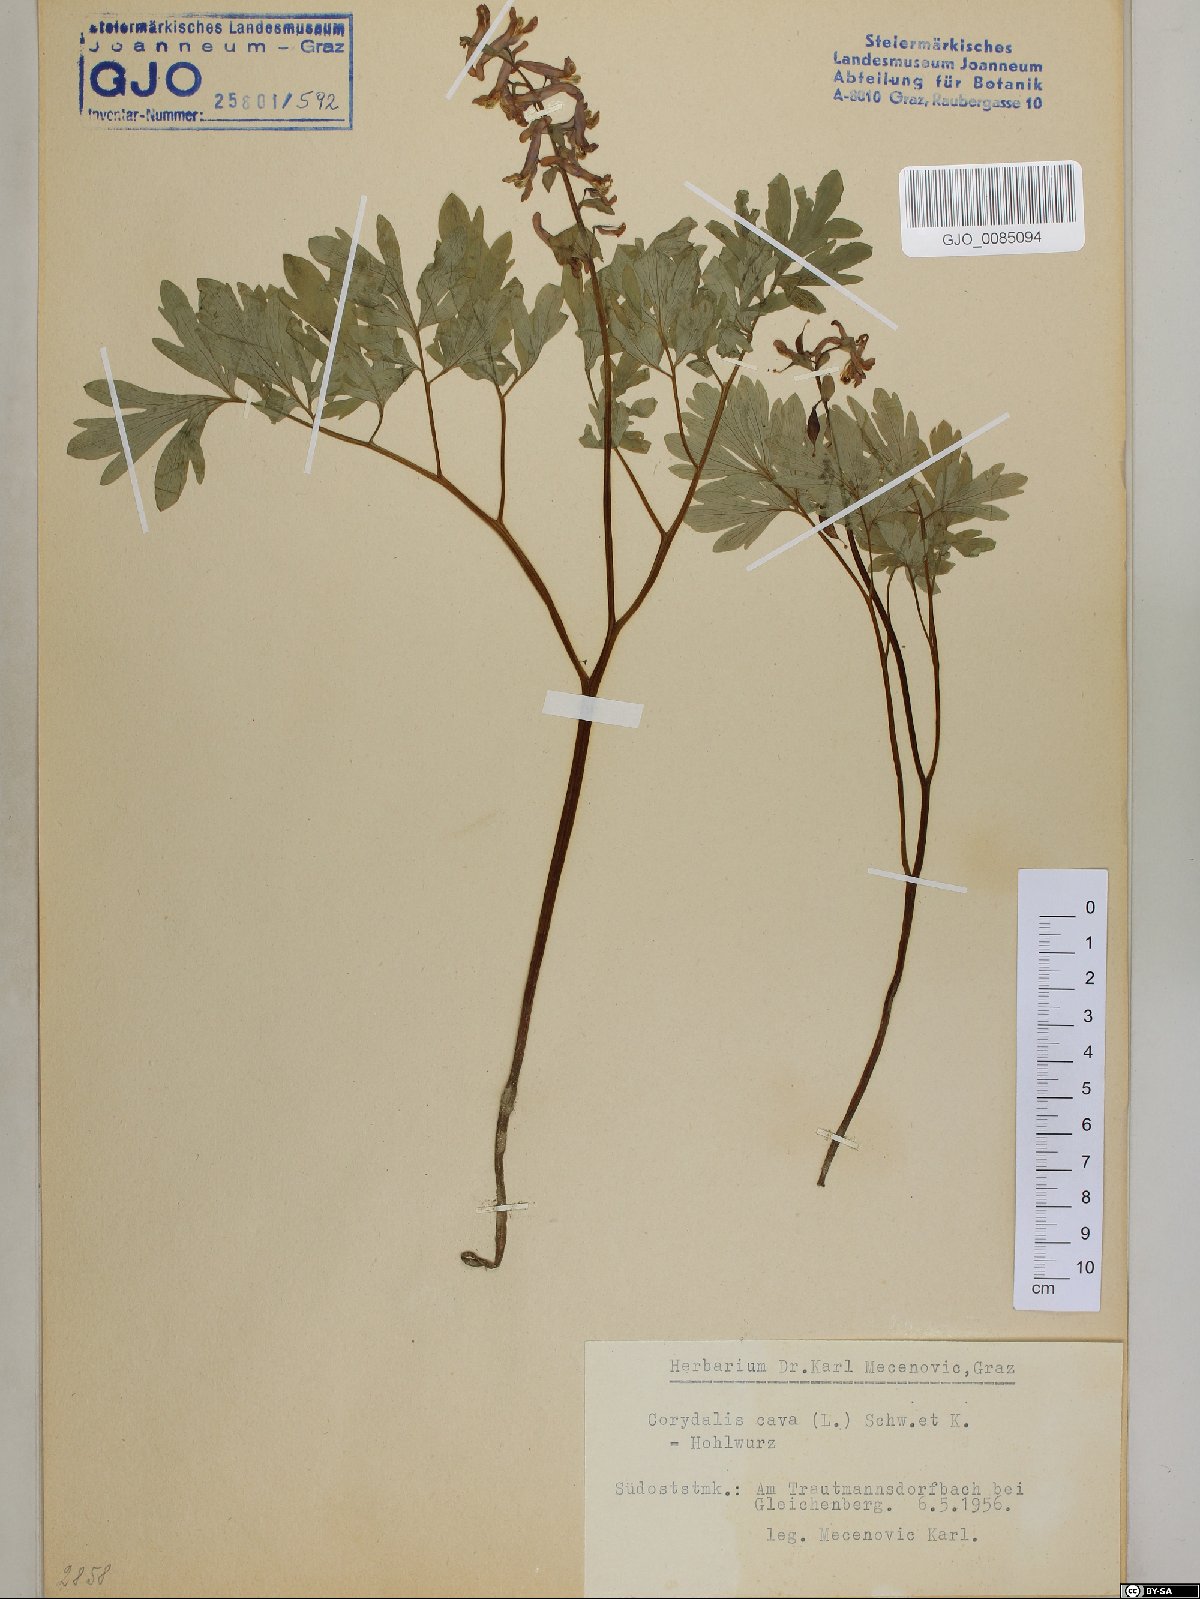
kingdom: Plantae
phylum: Tracheophyta
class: Magnoliopsida
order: Ranunculales
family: Papaveraceae
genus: Corydalis
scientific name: Corydalis cava
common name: Hollowroot
